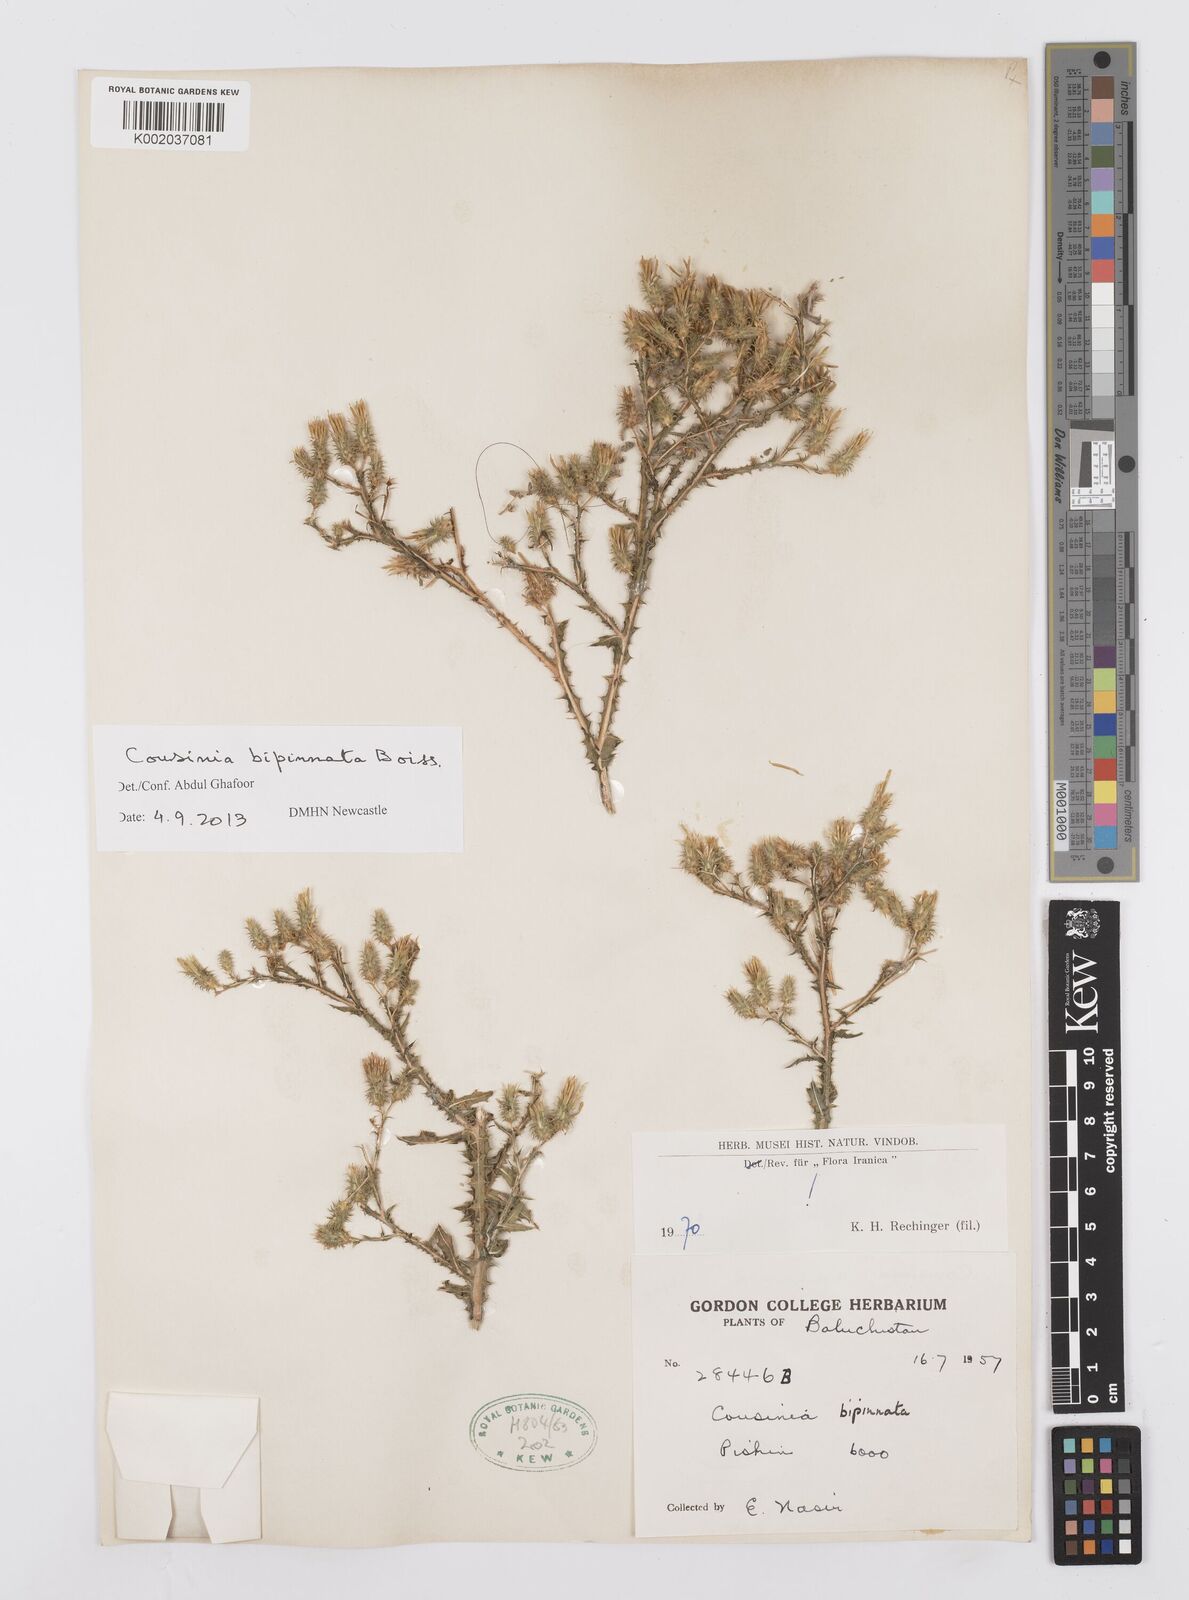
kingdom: Plantae
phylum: Tracheophyta
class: Magnoliopsida
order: Asterales
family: Asteraceae
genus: Cousinia
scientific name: Cousinia bipinnata
